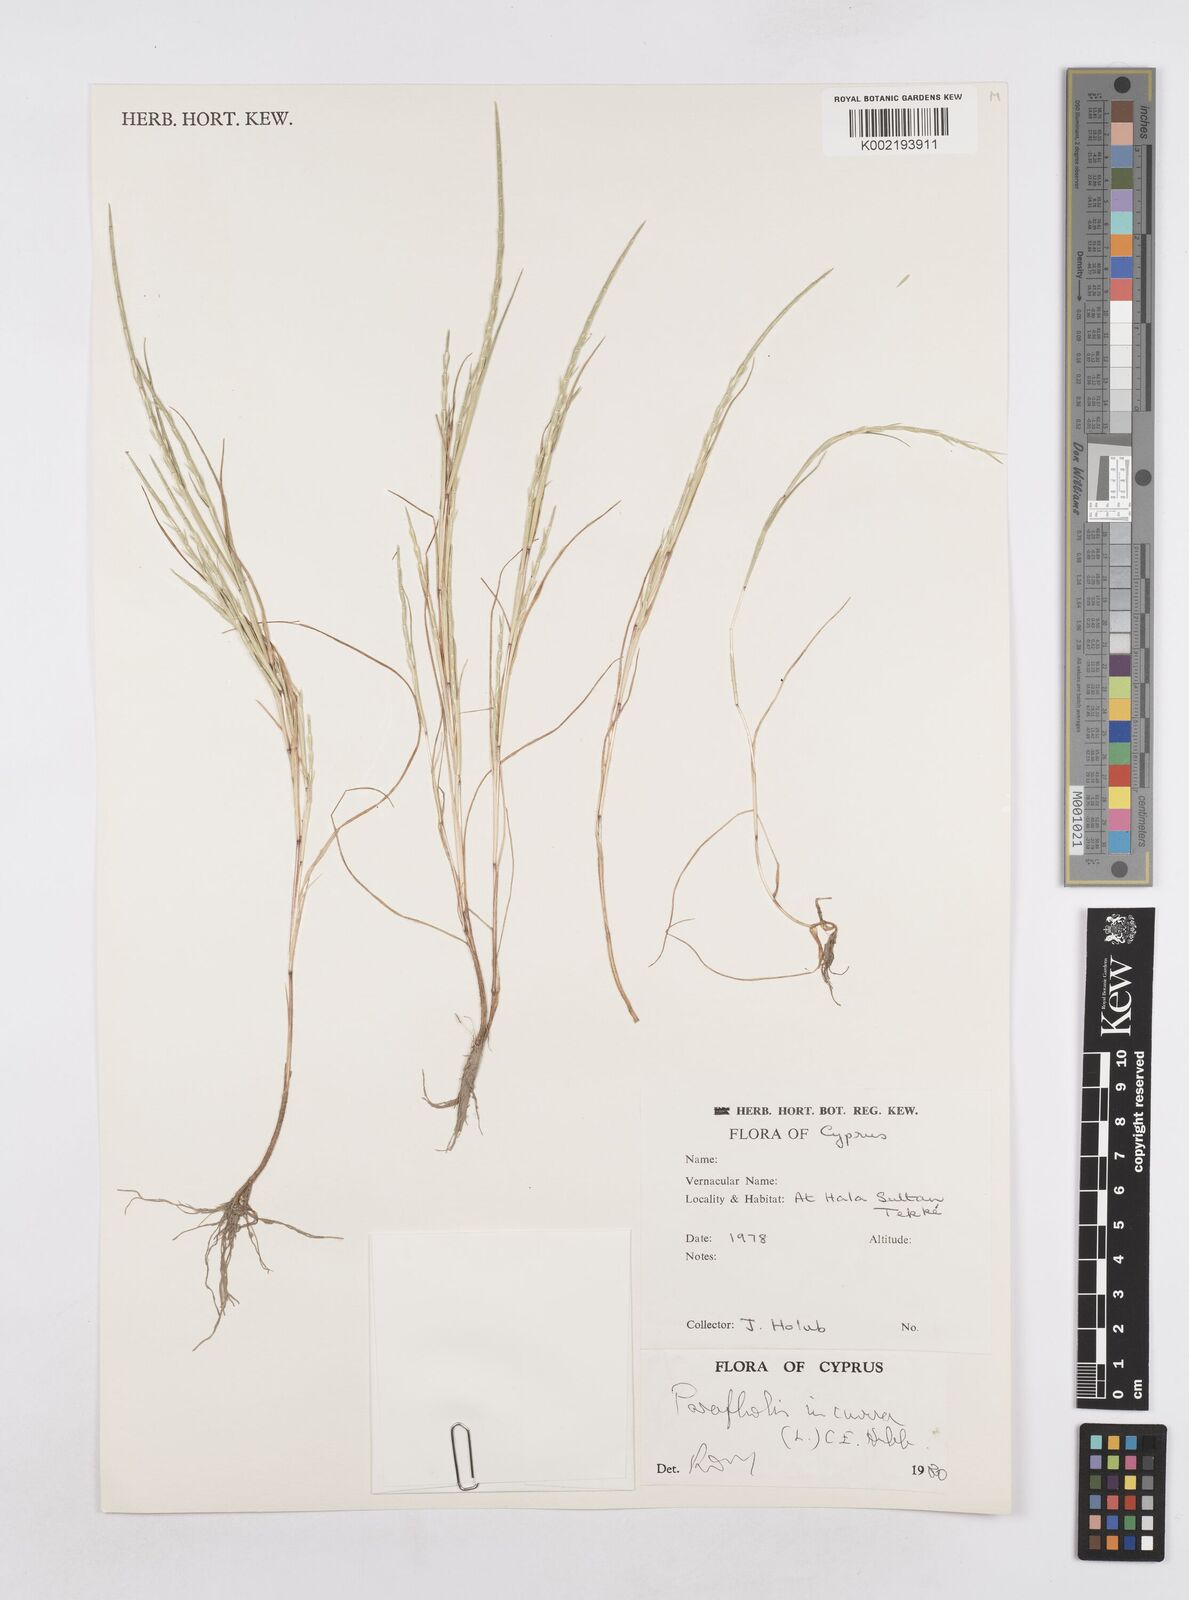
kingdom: Plantae
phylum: Tracheophyta
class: Liliopsida
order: Poales
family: Poaceae
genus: Parapholis
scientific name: Parapholis incurva
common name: Curved sicklegrass
